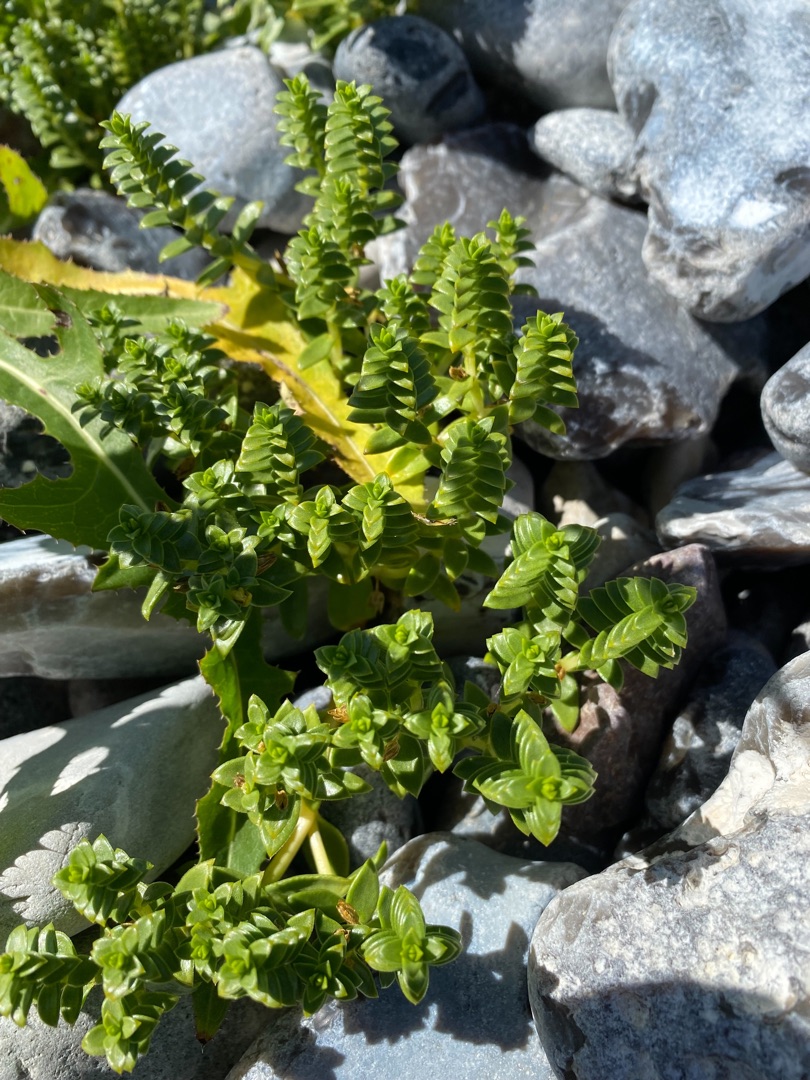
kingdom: Plantae
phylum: Tracheophyta
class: Magnoliopsida
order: Caryophyllales
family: Caryophyllaceae
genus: Honckenya
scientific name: Honckenya peploides
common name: Strandarve
